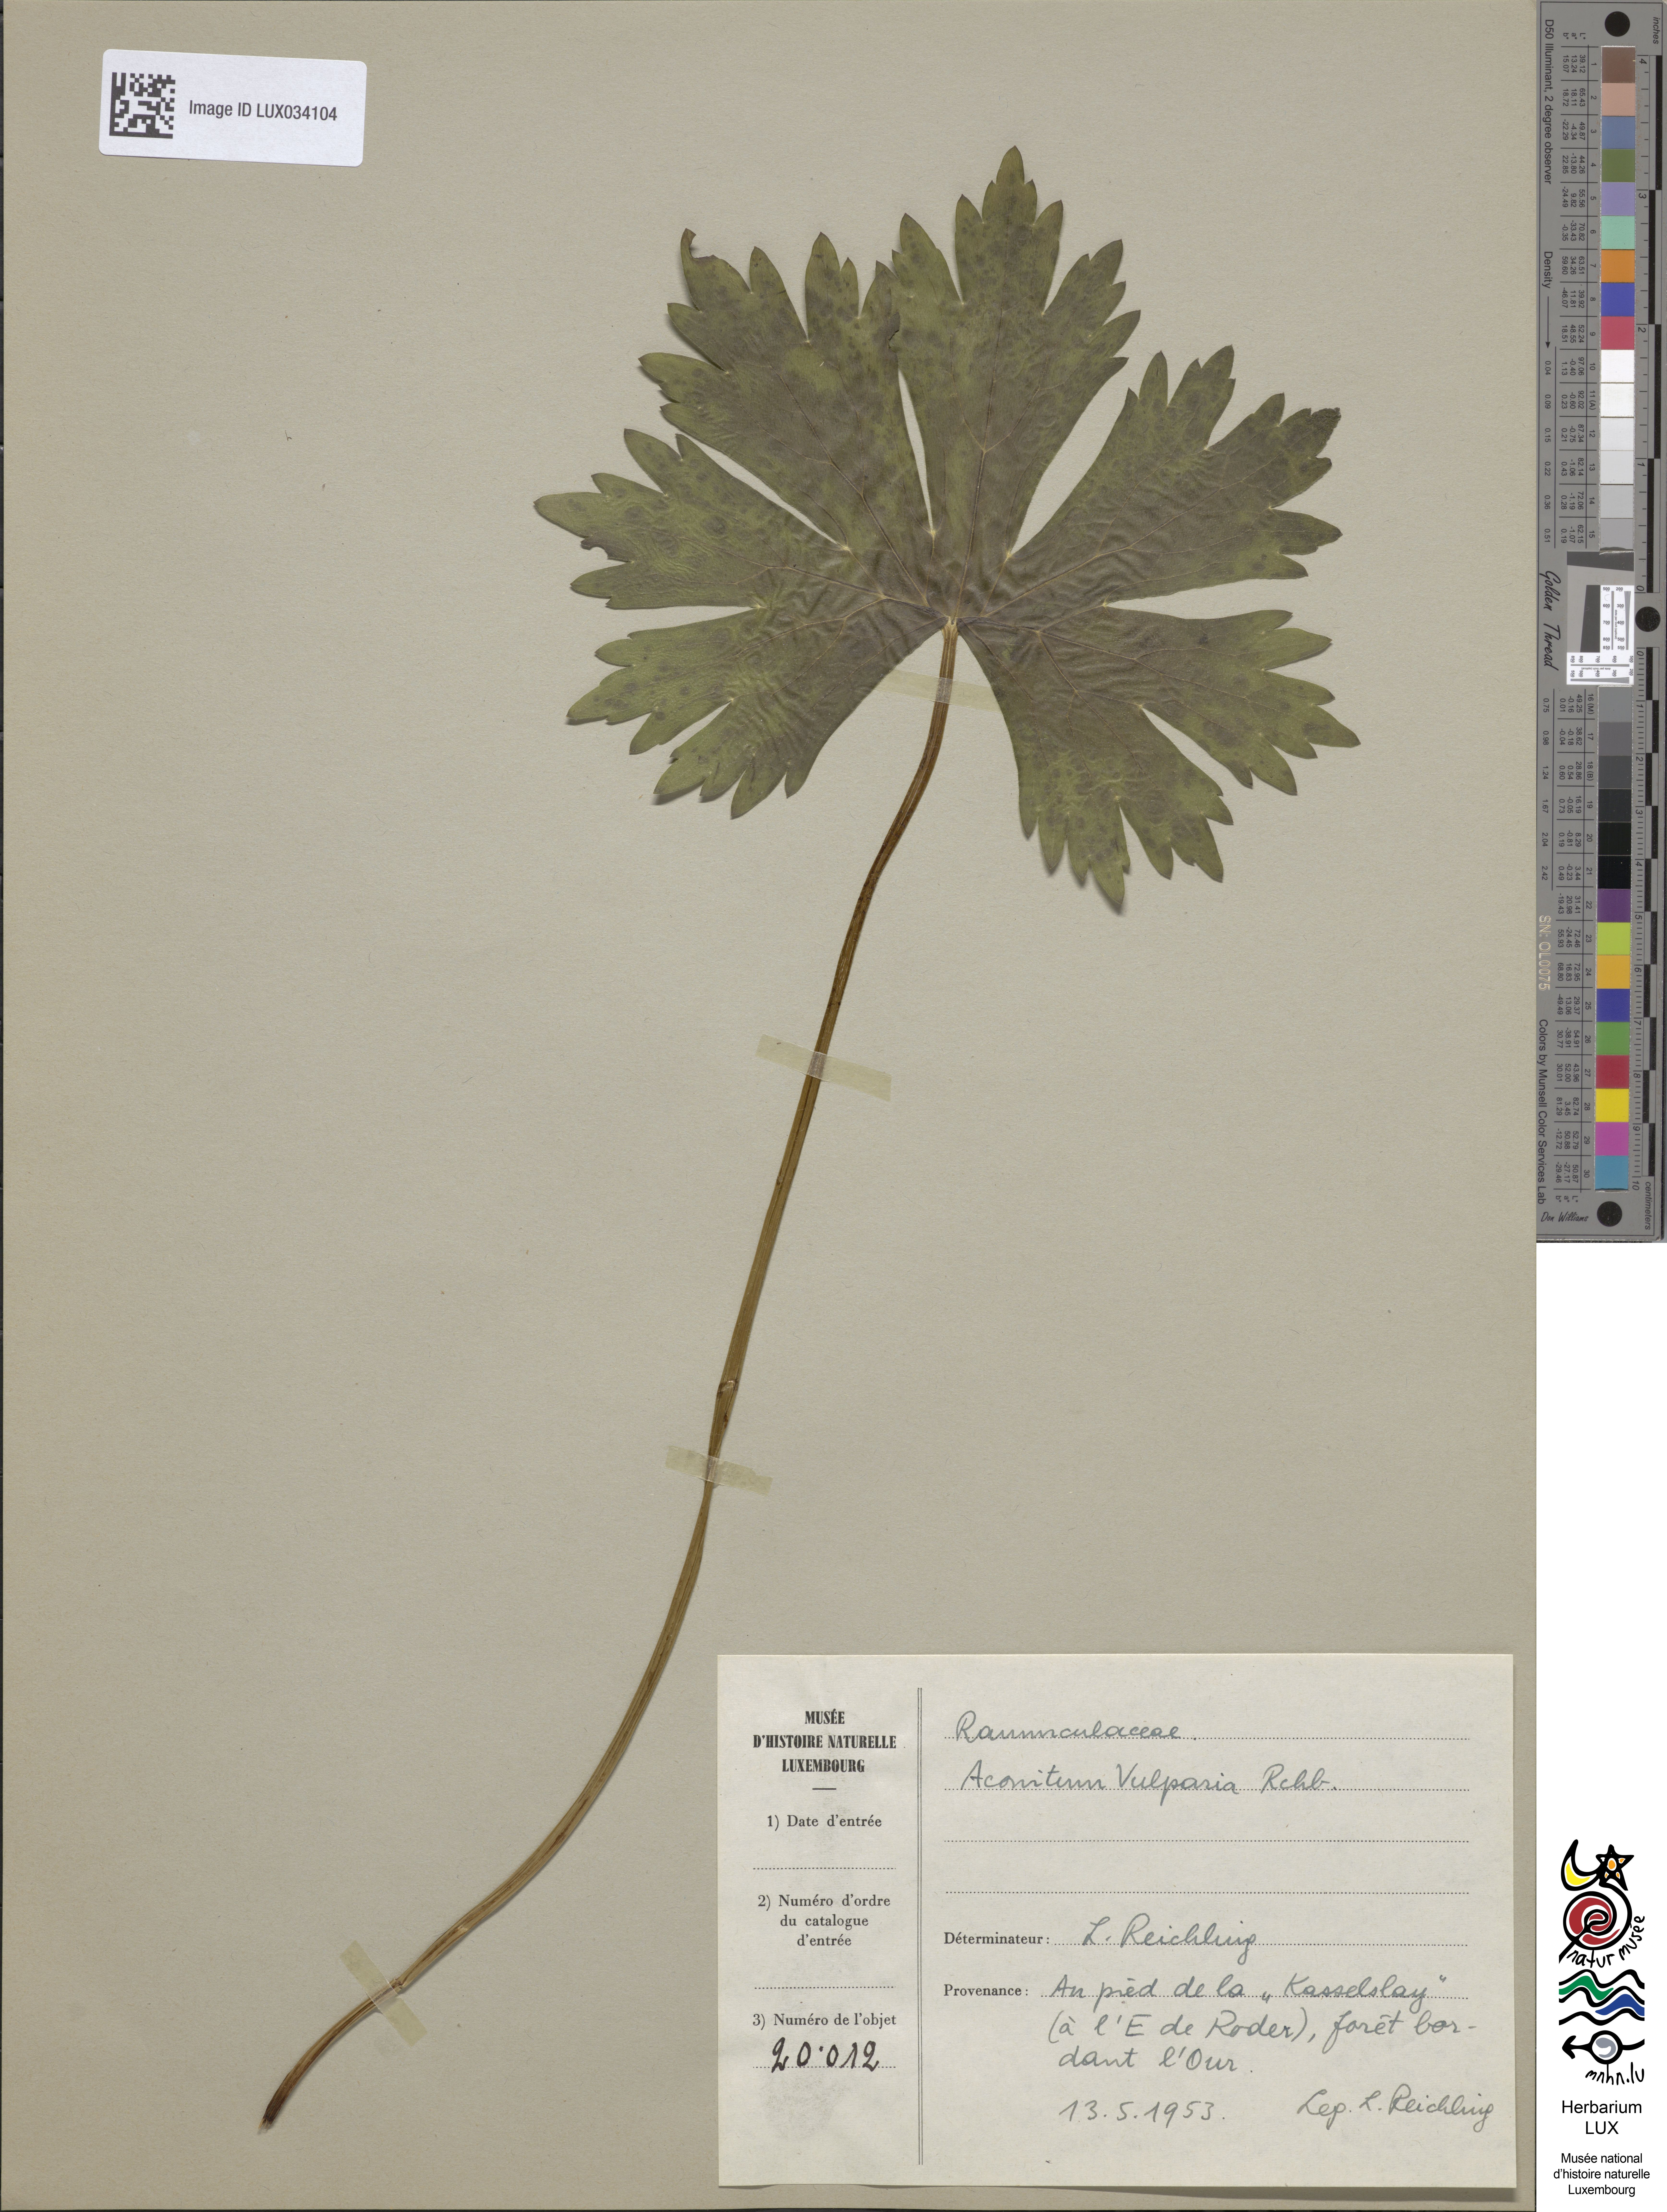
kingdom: Plantae
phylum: Tracheophyta
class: Magnoliopsida
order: Ranunculales
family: Ranunculaceae
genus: Aconitum
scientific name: Aconitum lycoctonum
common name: Wolf's-bane
